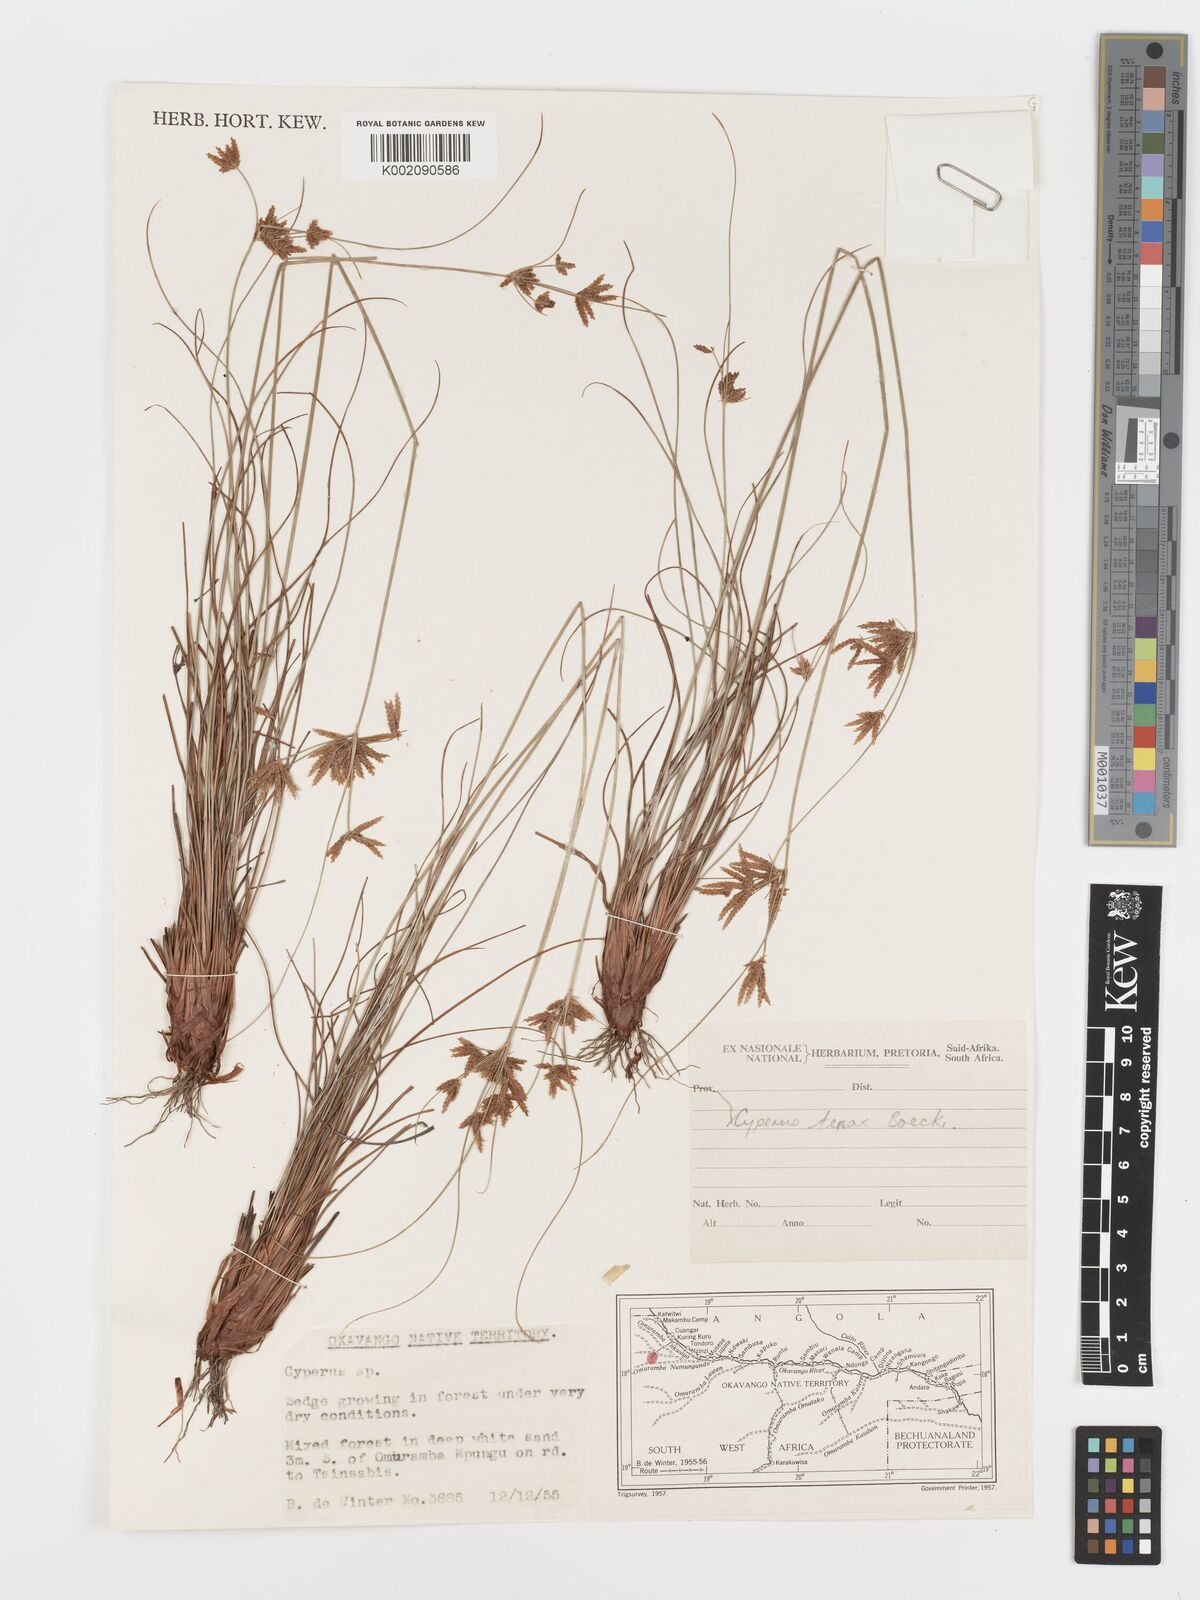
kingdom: Plantae
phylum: Tracheophyta
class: Liliopsida
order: Poales
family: Cyperaceae
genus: Cyperus
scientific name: Cyperus tenax
